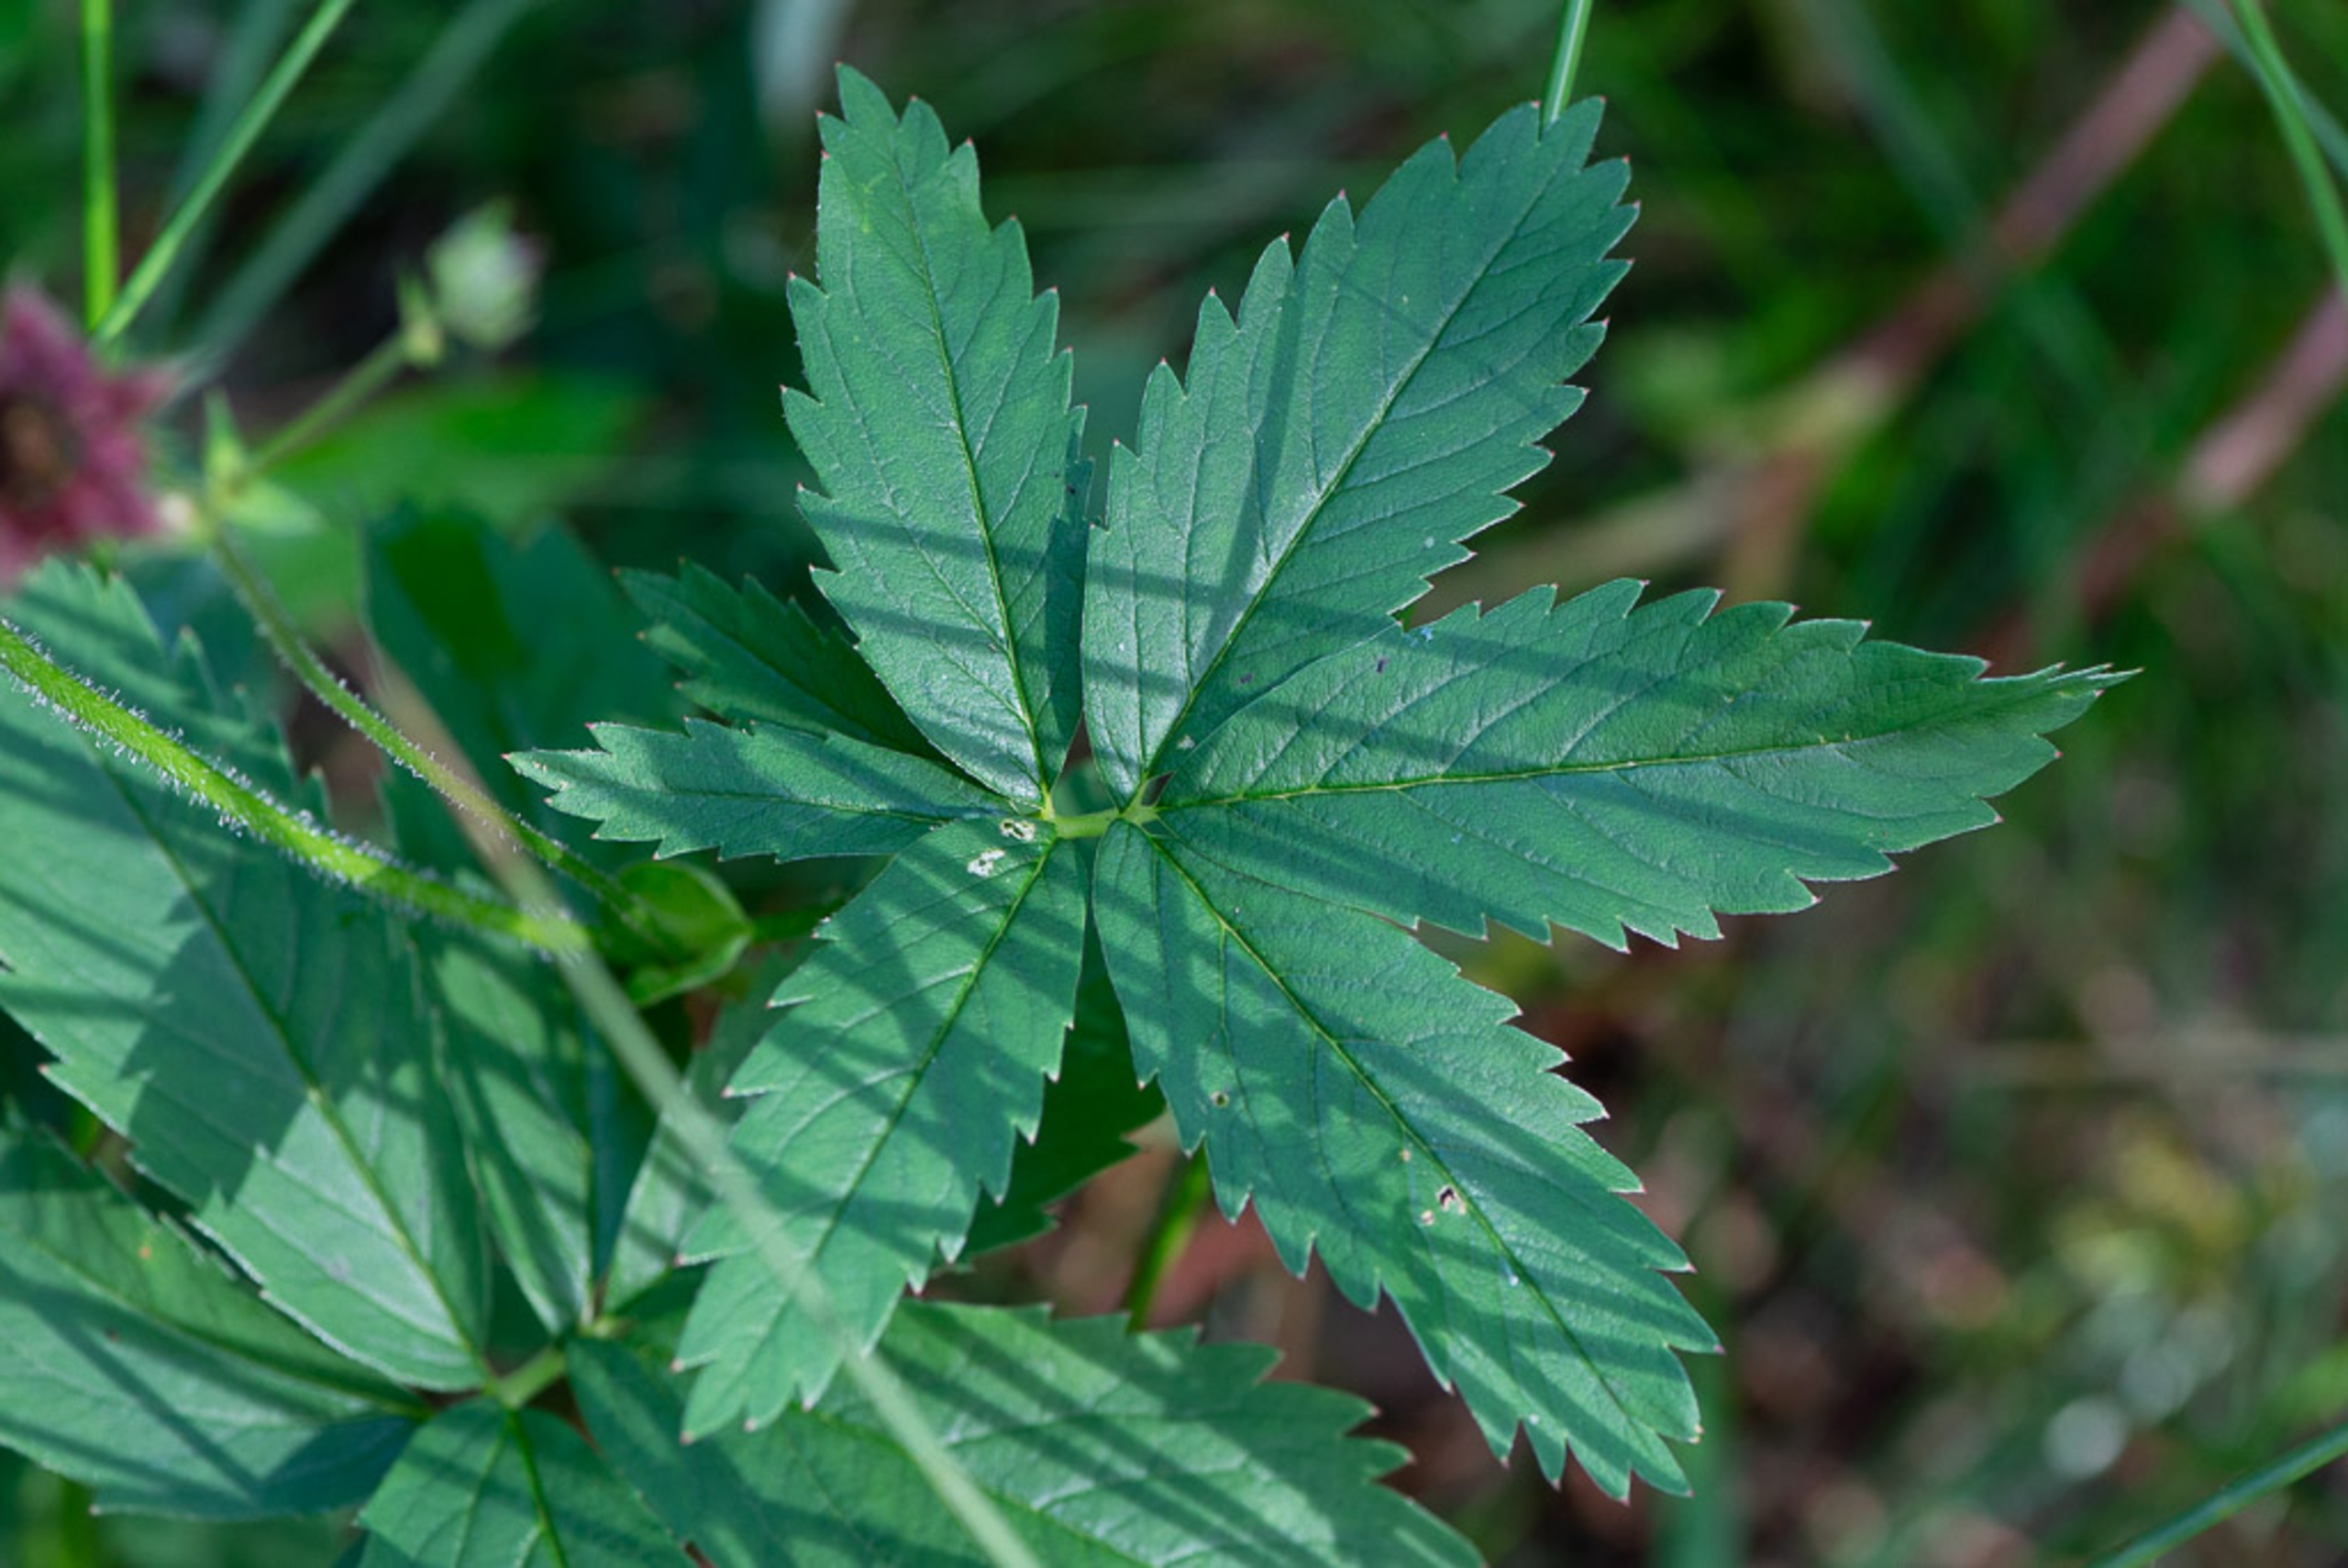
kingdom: Plantae
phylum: Tracheophyta
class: Magnoliopsida
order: Rosales
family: Rosaceae
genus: Comarum
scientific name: Comarum palustre
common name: Kragefod
